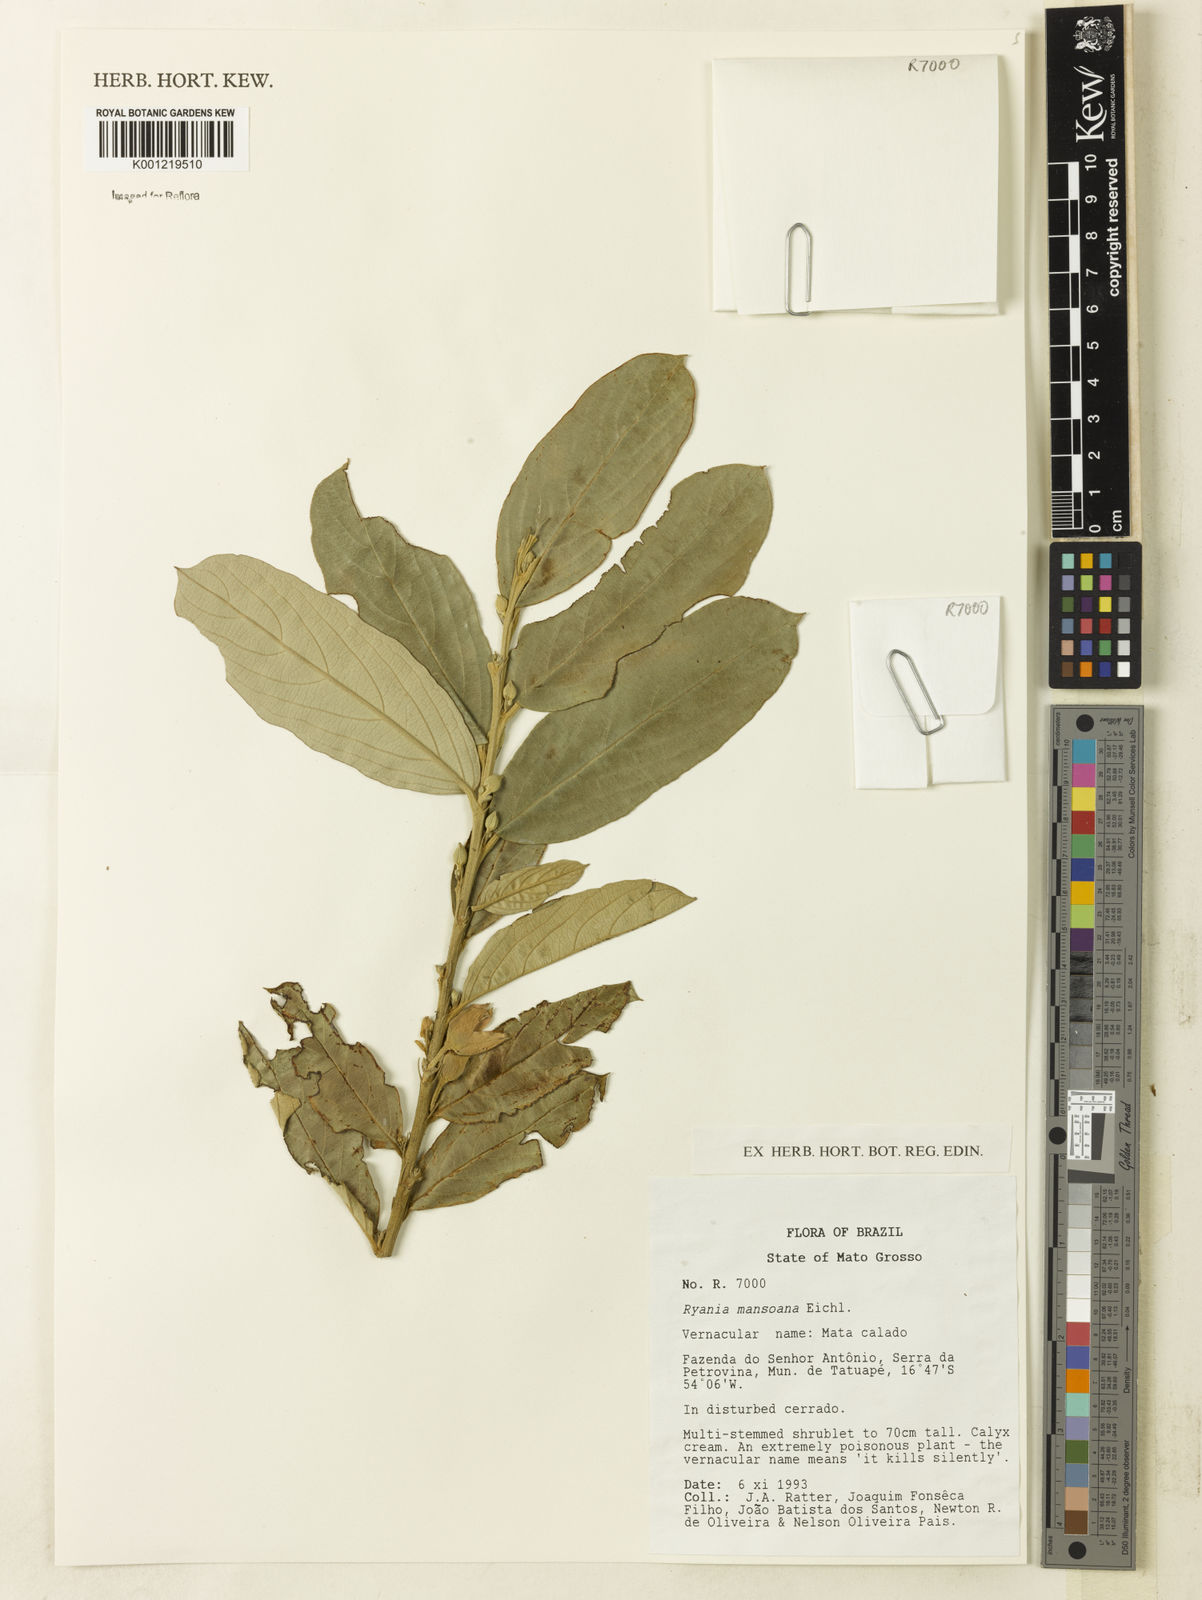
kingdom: Plantae
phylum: Tracheophyta
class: Magnoliopsida
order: Malpighiales
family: Salicaceae
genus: Ryania
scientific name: Ryania mansoana
